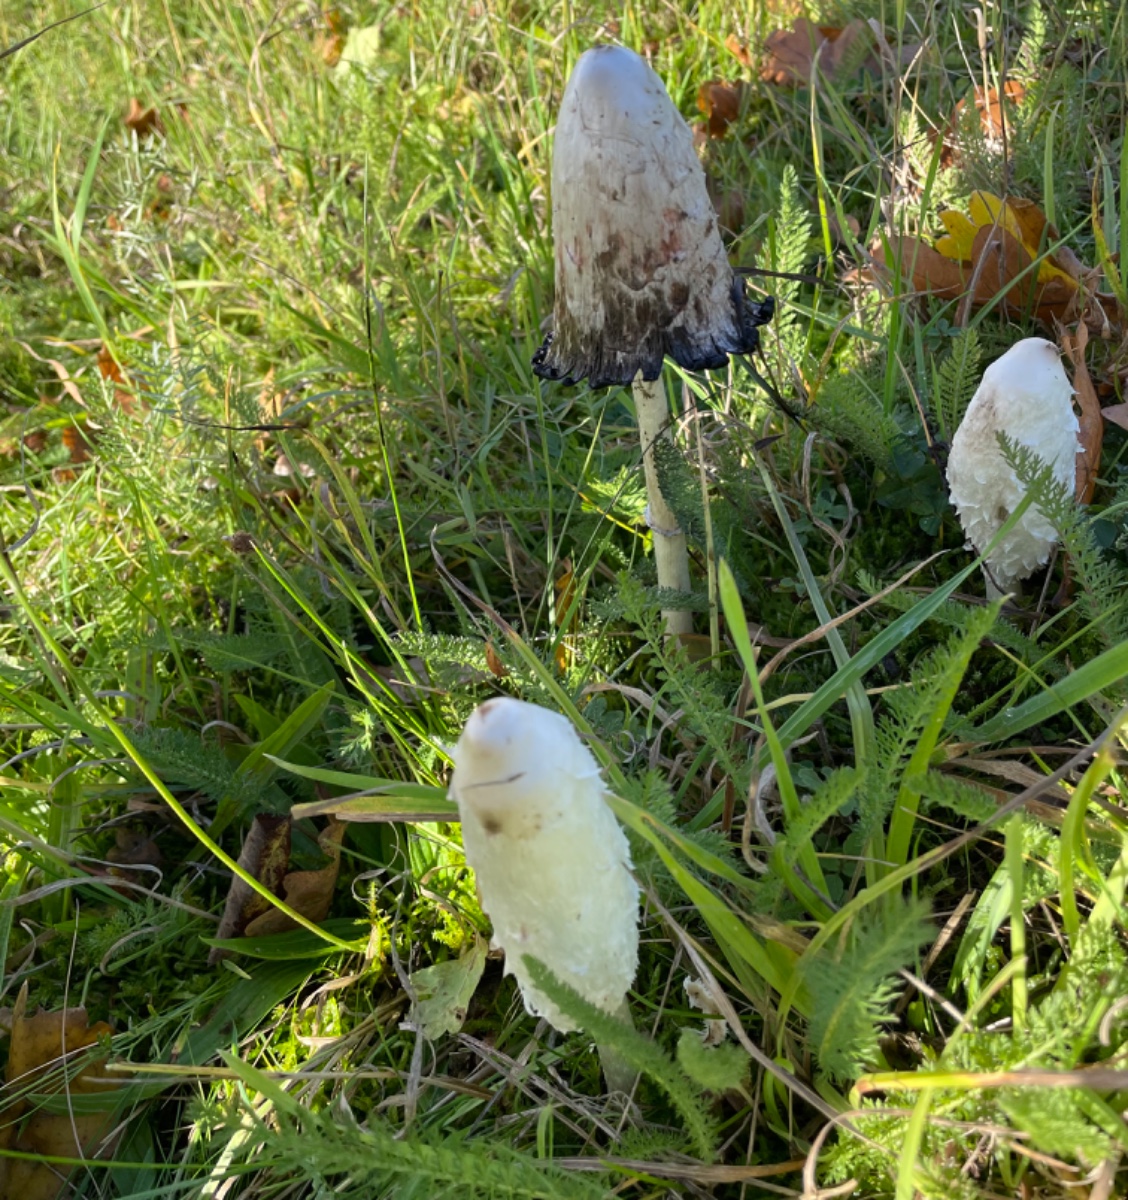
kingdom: Fungi
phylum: Basidiomycota
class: Agaricomycetes
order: Agaricales
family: Agaricaceae
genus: Coprinus
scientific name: Coprinus comatus
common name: stor parykhat
